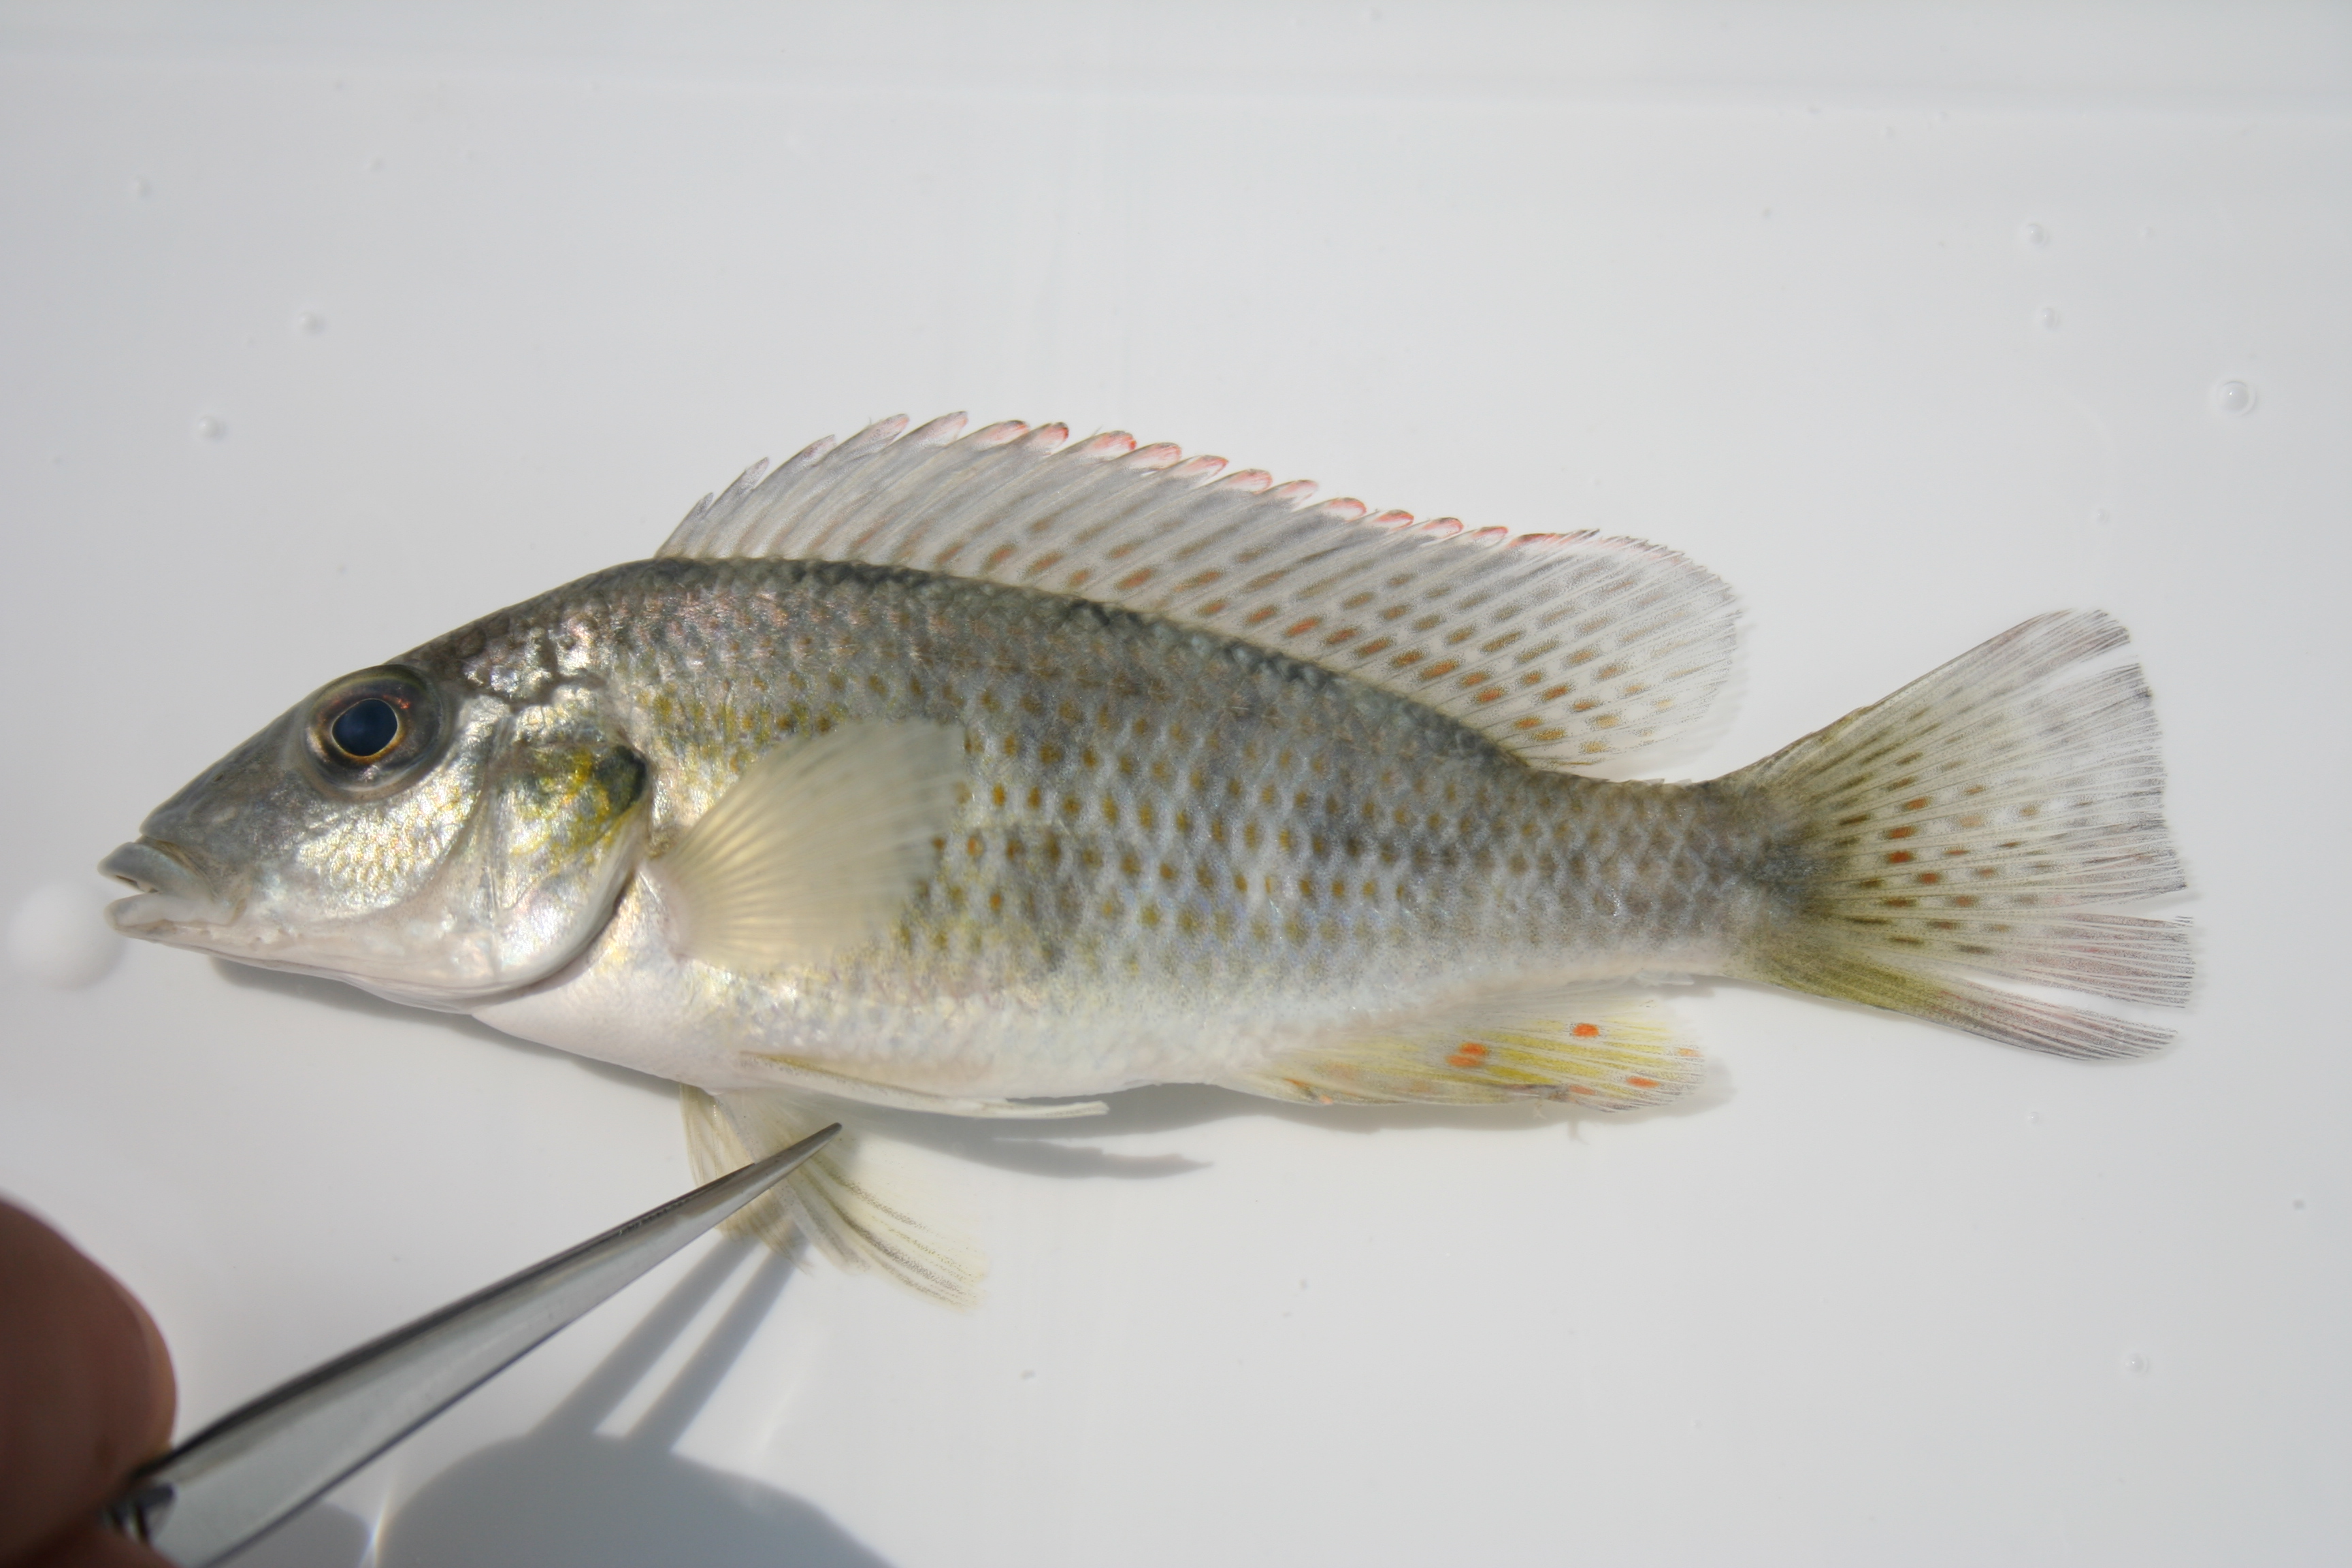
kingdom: Animalia
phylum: Chordata
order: Perciformes
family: Cichlidae
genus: Thoracochromis
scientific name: Thoracochromis buysi
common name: Namib happy
